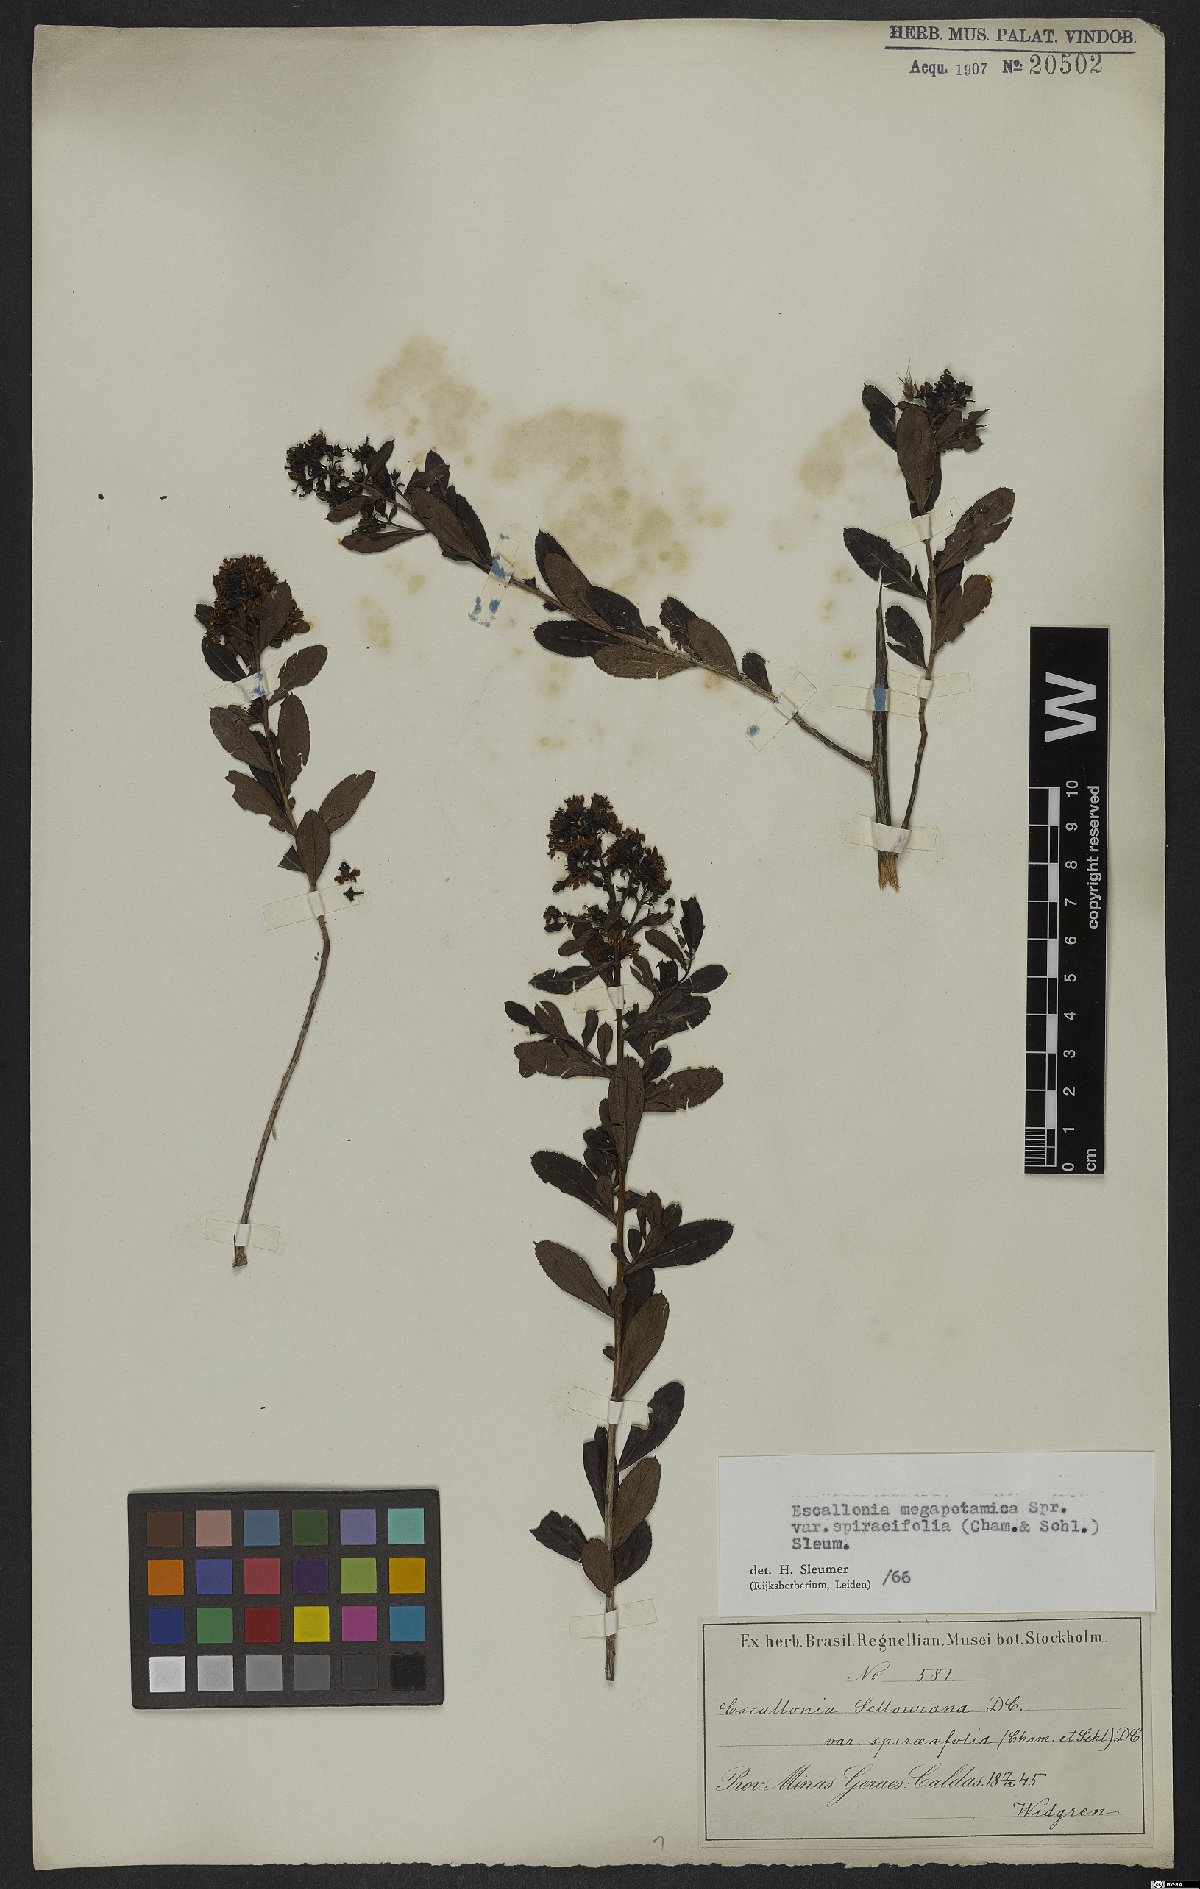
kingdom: Plantae
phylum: Tracheophyta
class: Magnoliopsida
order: Escalloniales
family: Escalloniaceae
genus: Escallonia
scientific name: Escallonia megapotamica
